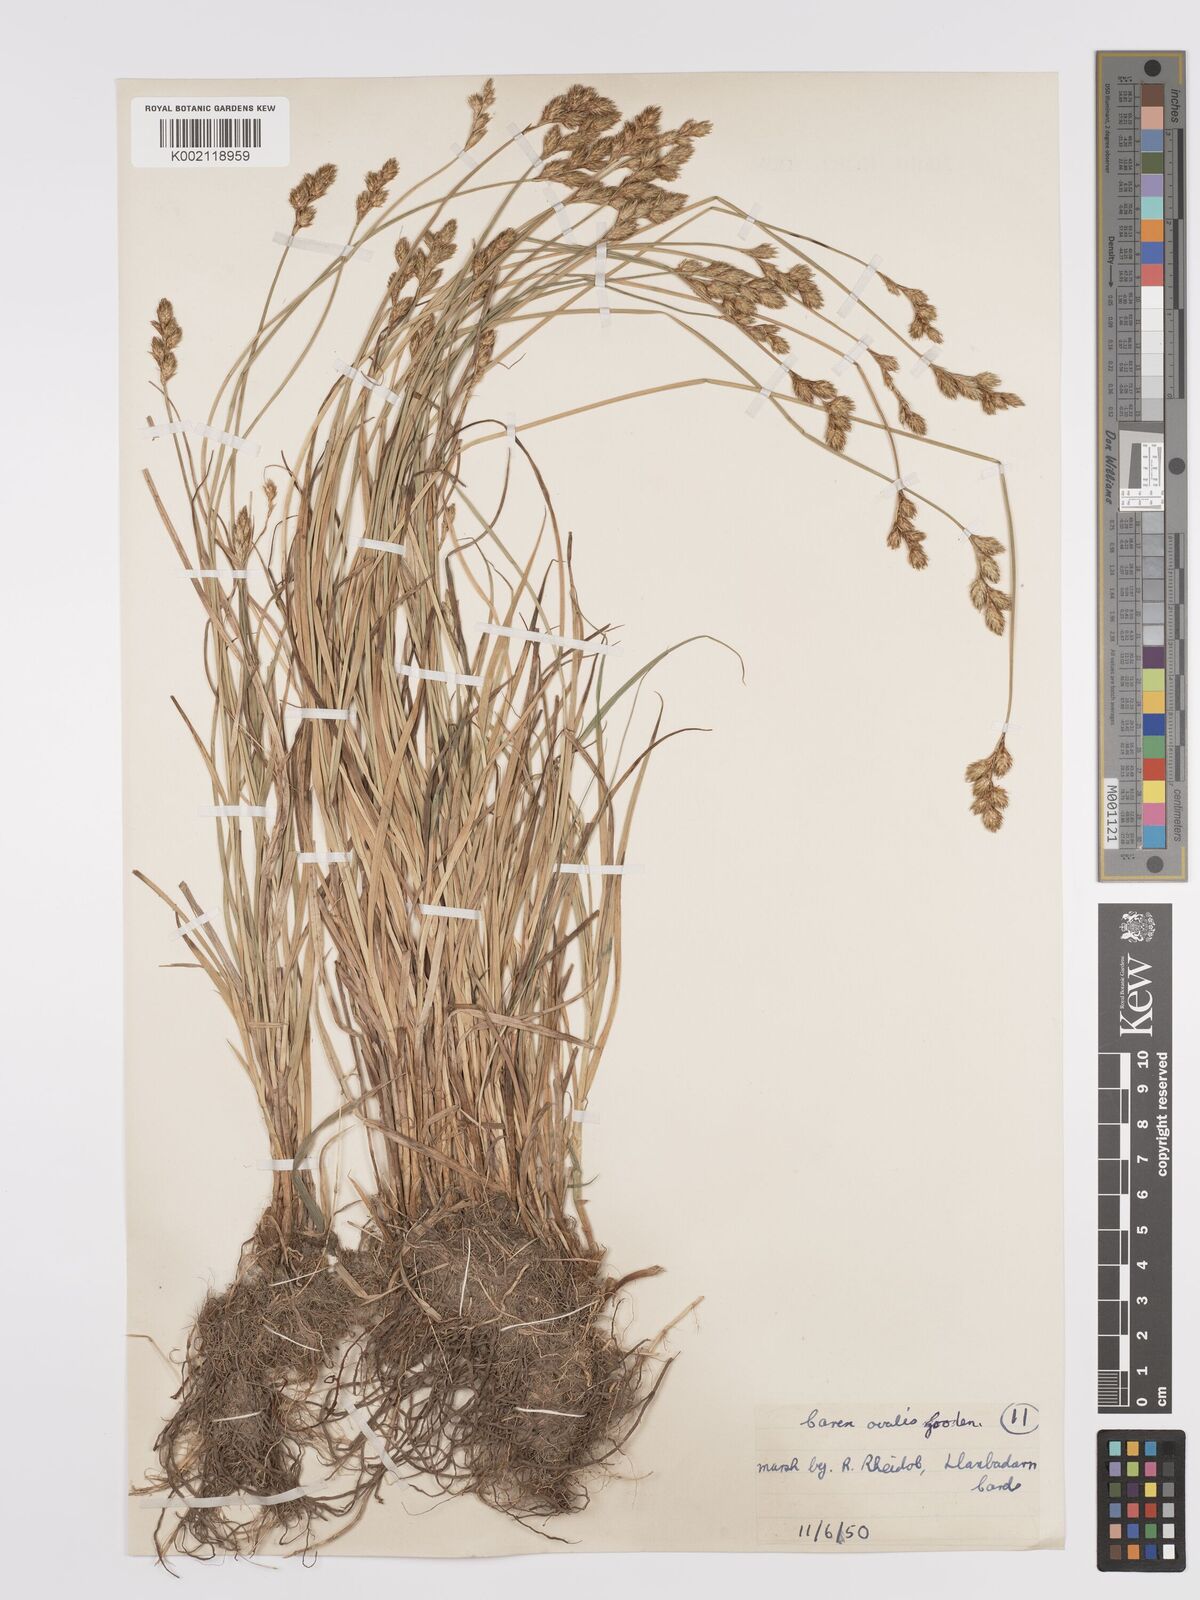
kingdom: Plantae
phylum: Tracheophyta
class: Liliopsida
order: Poales
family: Cyperaceae
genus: Carex
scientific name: Carex leporina
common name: Oval sedge
